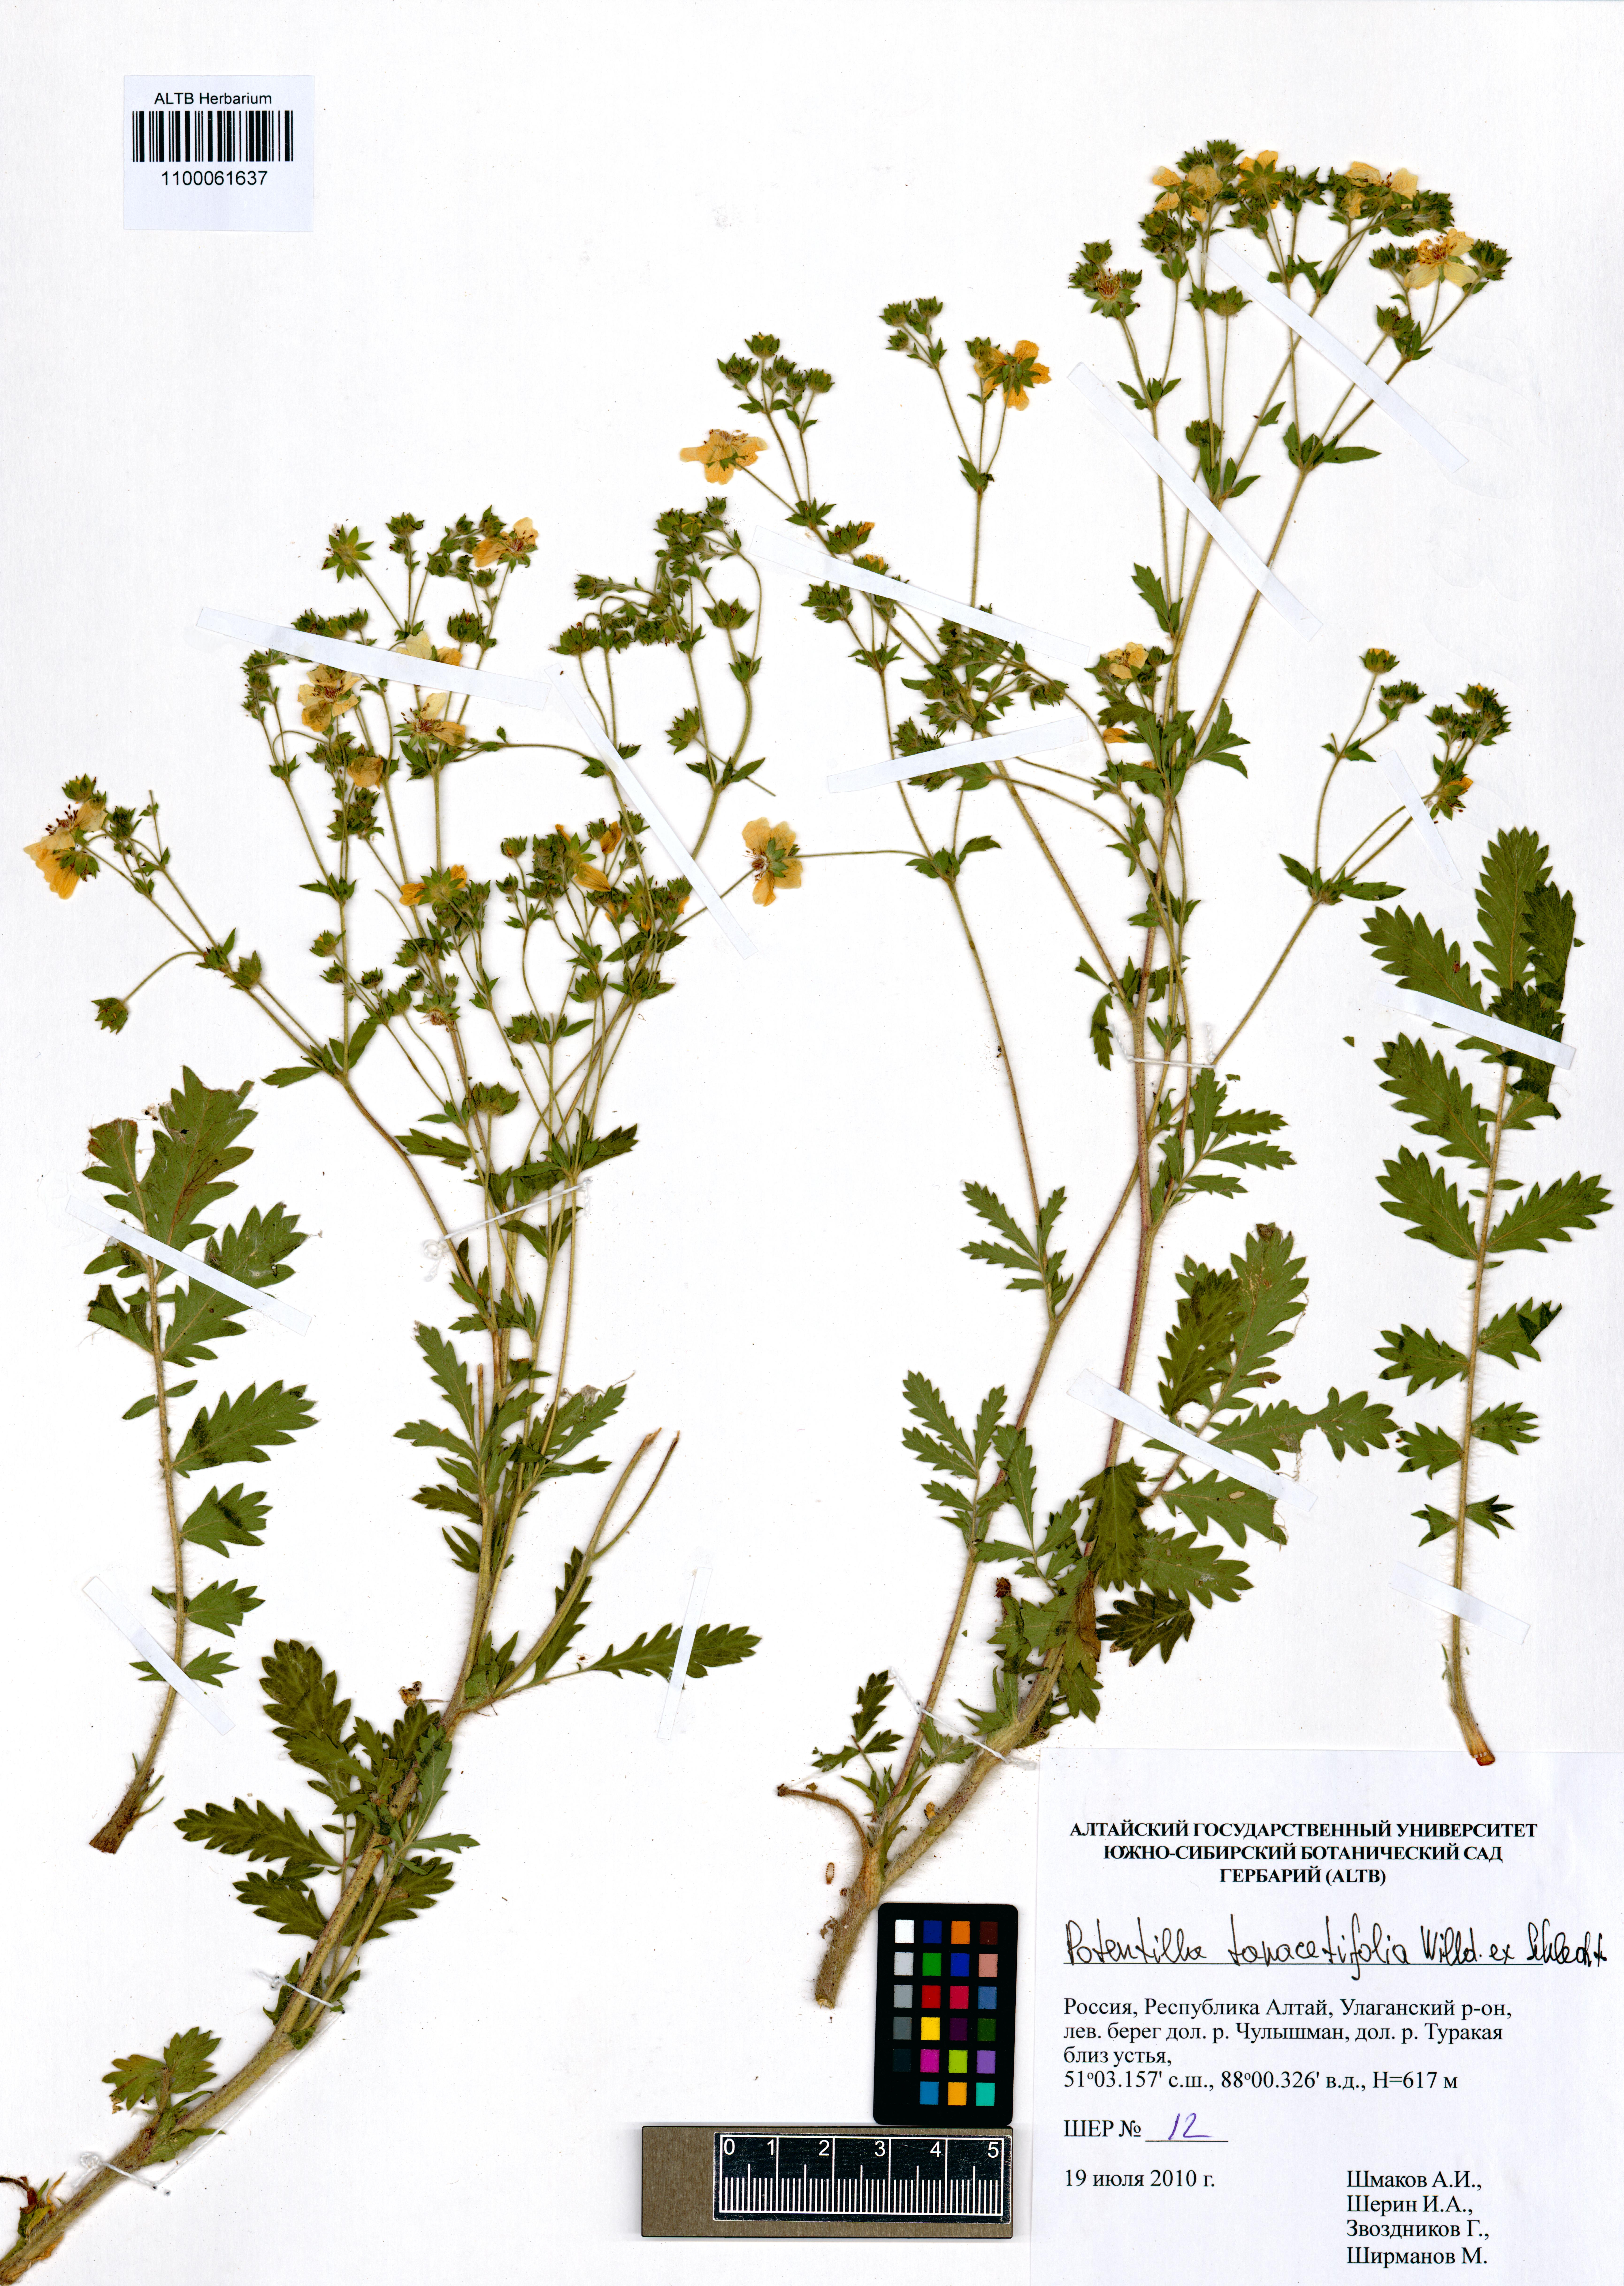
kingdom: Plantae
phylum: Tracheophyta
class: Magnoliopsida
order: Rosales
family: Rosaceae
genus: Potentilla
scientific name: Potentilla tanacetifolia
